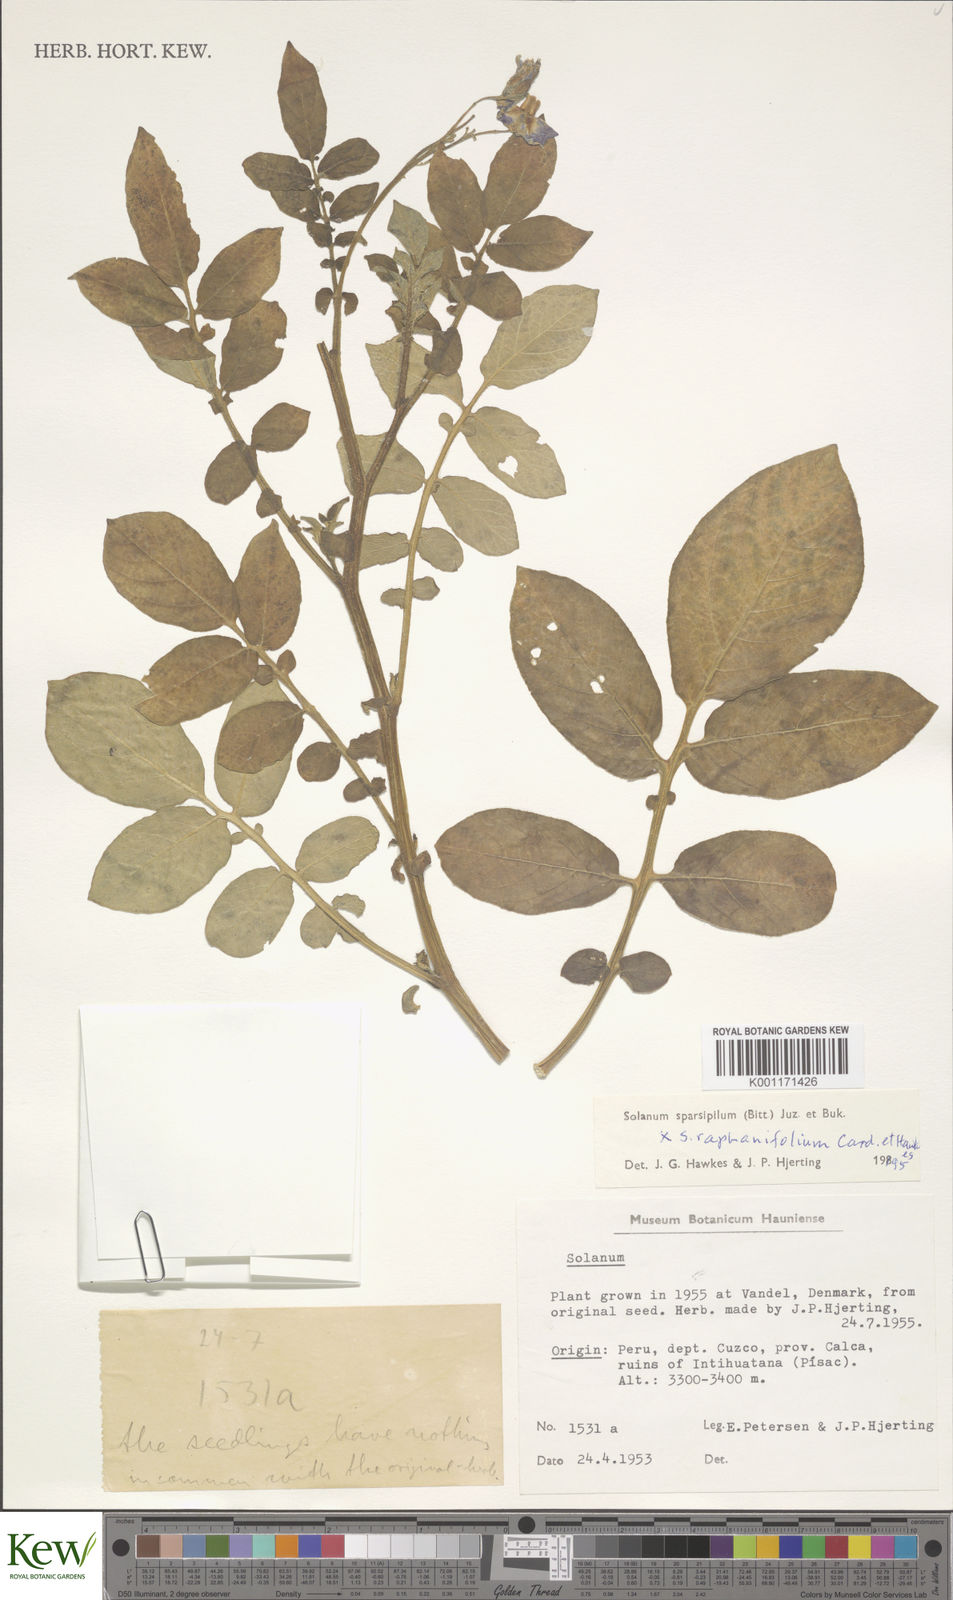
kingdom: Plantae
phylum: Tracheophyta
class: Magnoliopsida
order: Solanales
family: Solanaceae
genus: Solanum
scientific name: Solanum brevicaule
